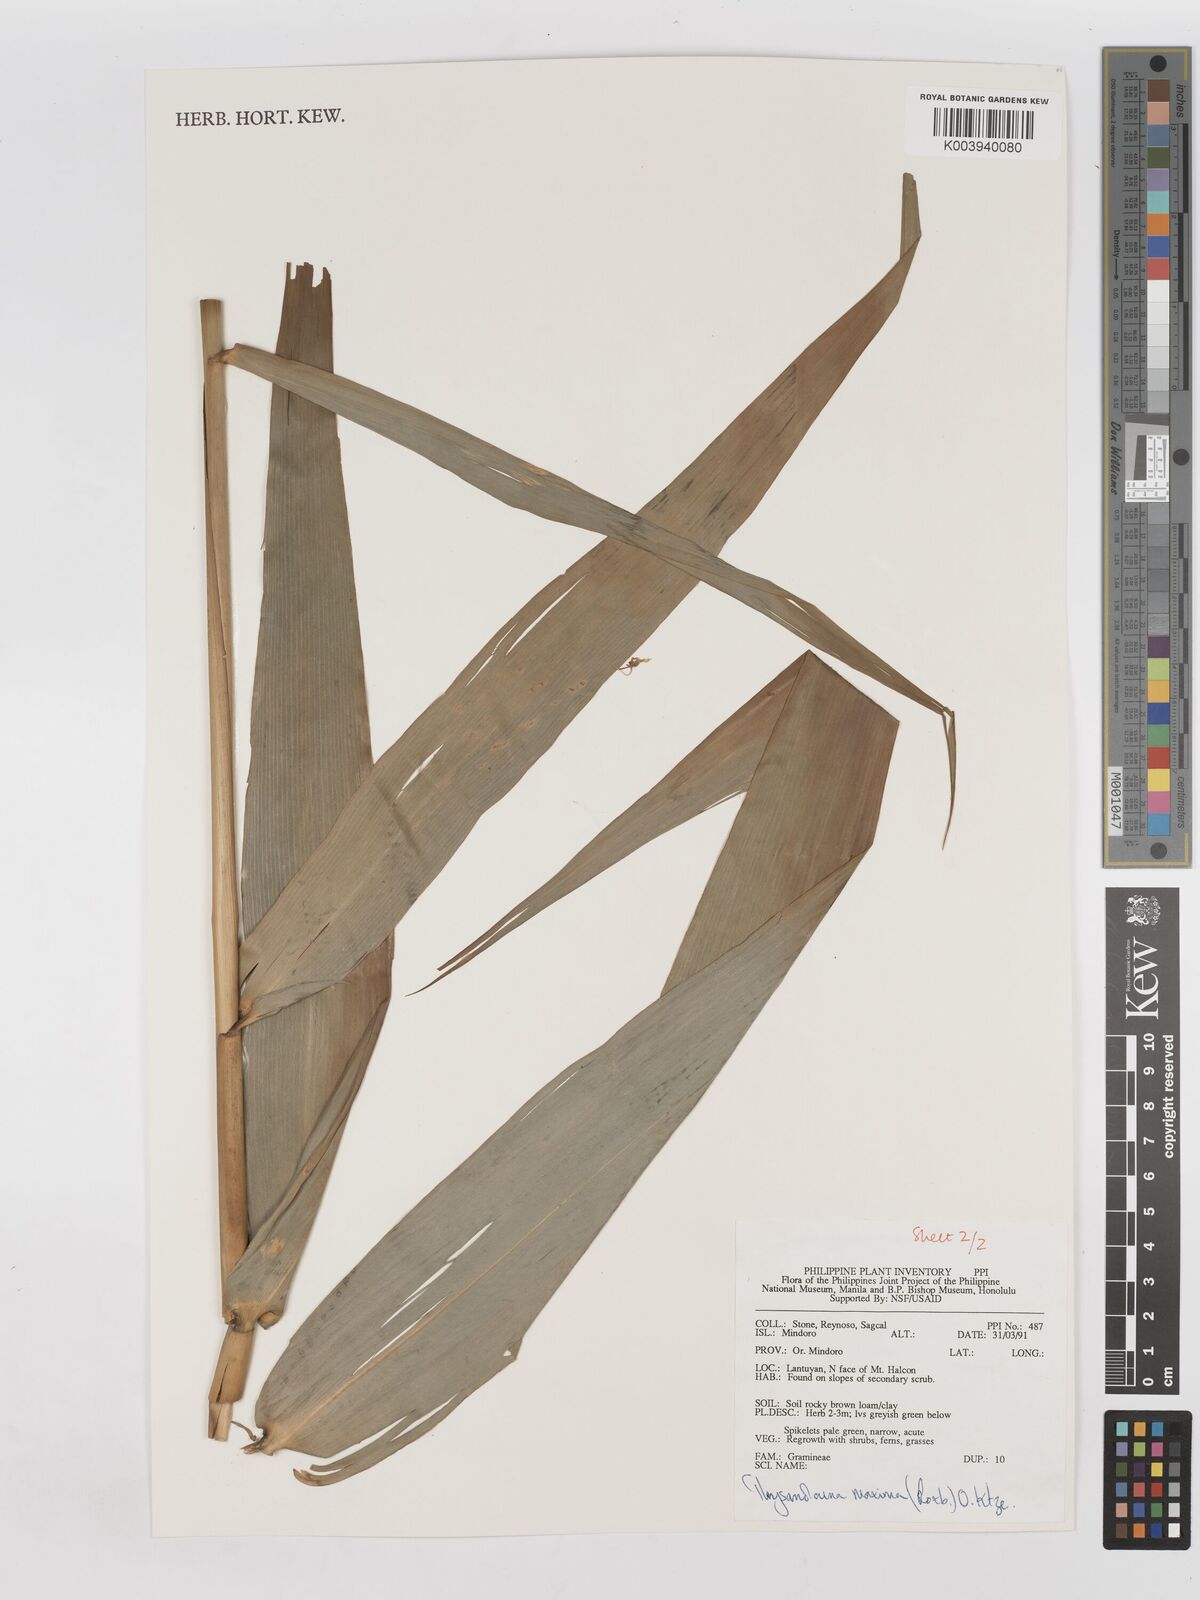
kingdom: Plantae
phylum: Tracheophyta
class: Liliopsida
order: Poales
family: Poaceae
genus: Thysanolaena
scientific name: Thysanolaena latifolia
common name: Tiger grass
